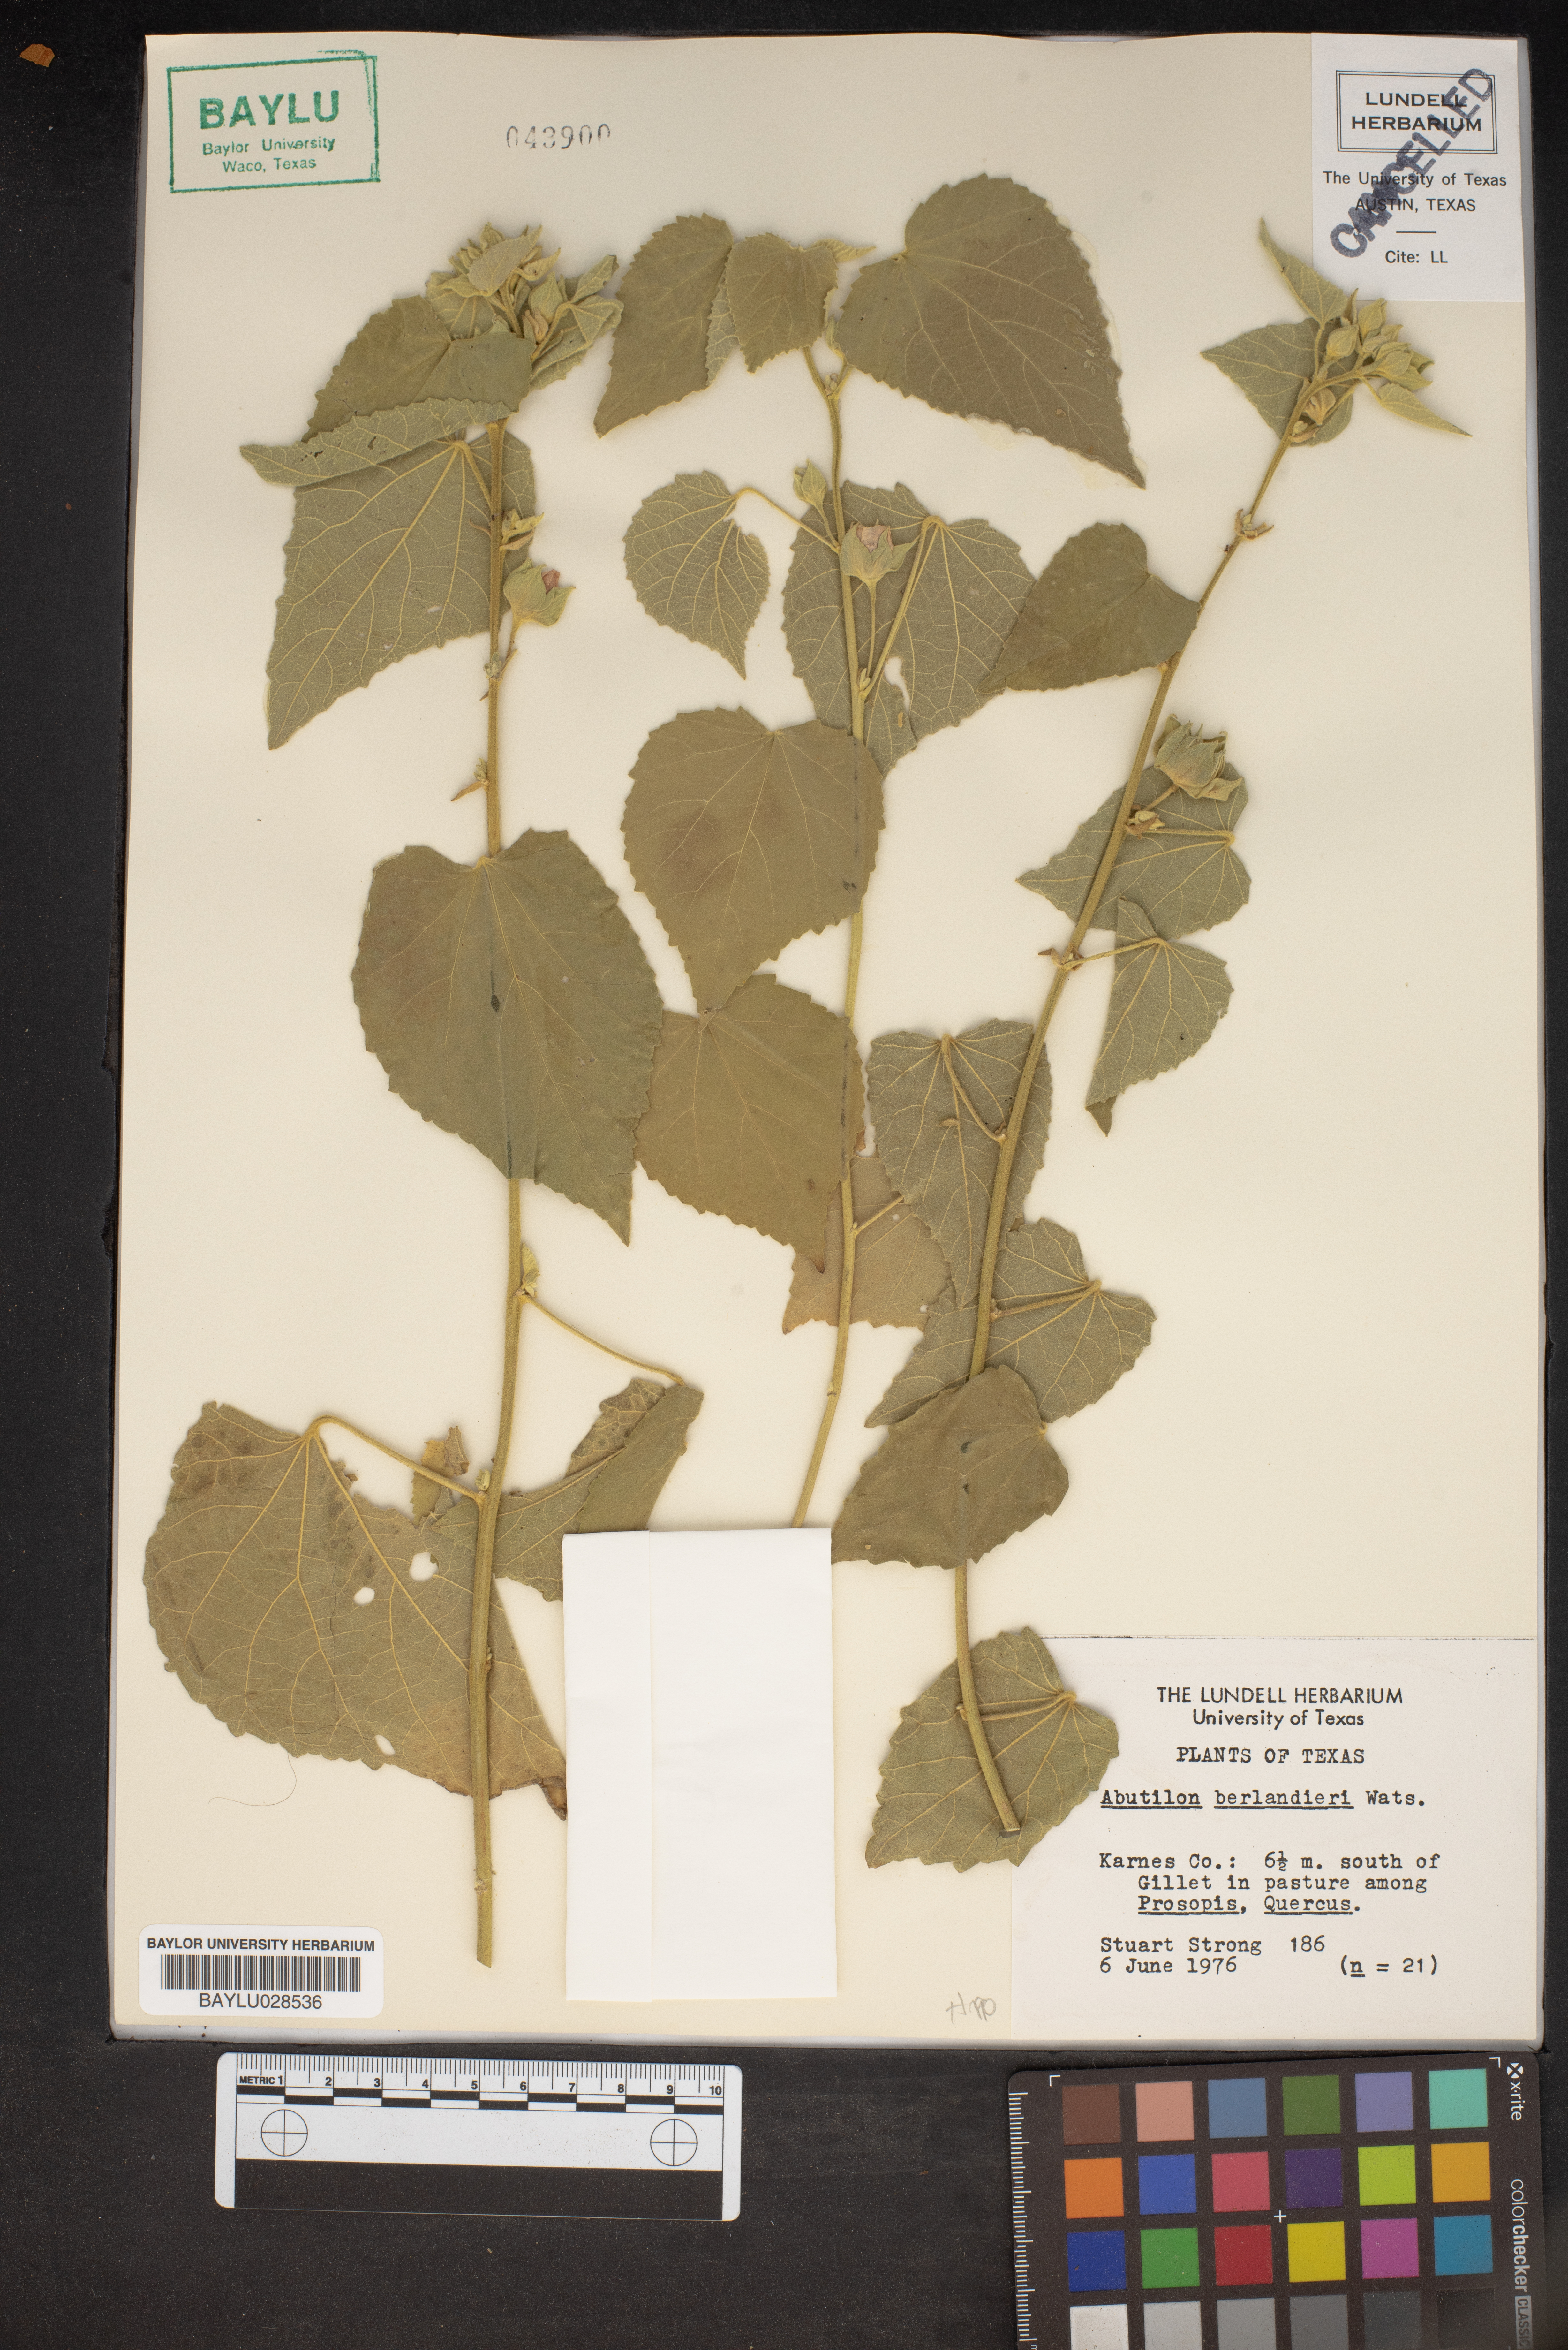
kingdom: Plantae
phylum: Tracheophyta
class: Magnoliopsida
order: Malvales
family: Malvaceae
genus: Abutilon
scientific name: Abutilon berlandieri
